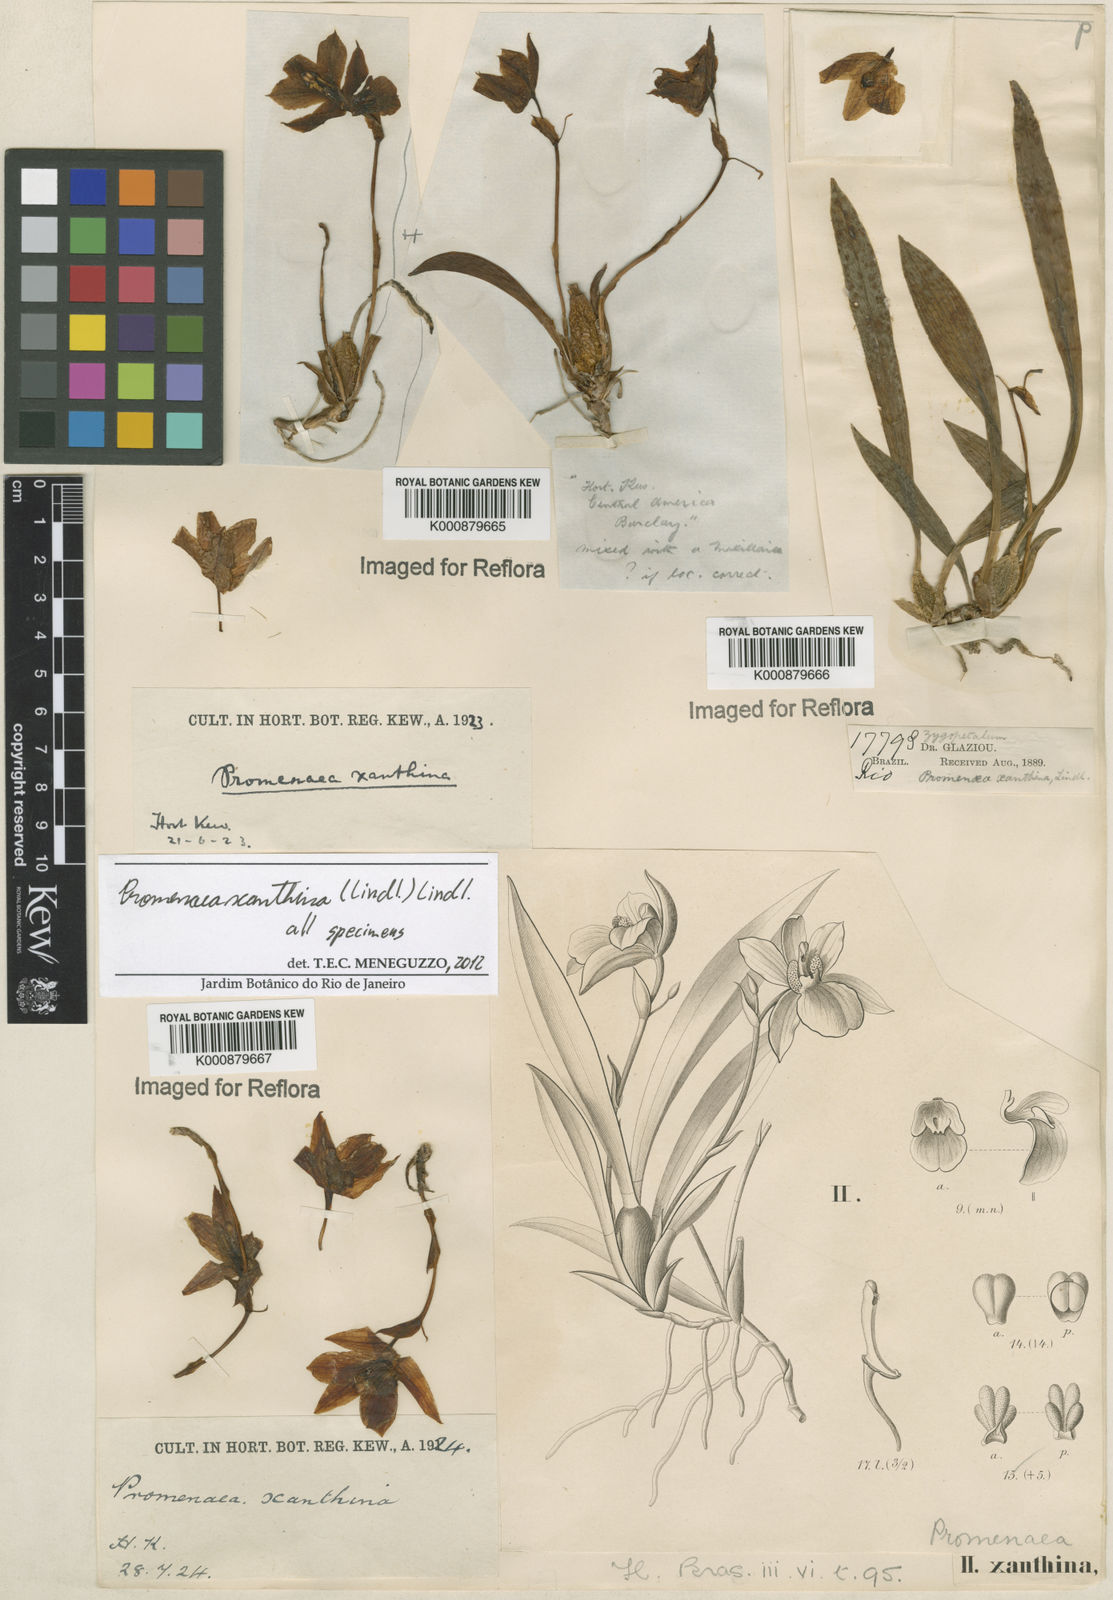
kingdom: Plantae
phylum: Tracheophyta
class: Liliopsida
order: Asparagales
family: Orchidaceae
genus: Promenaea
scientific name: Promenaea xanthina
